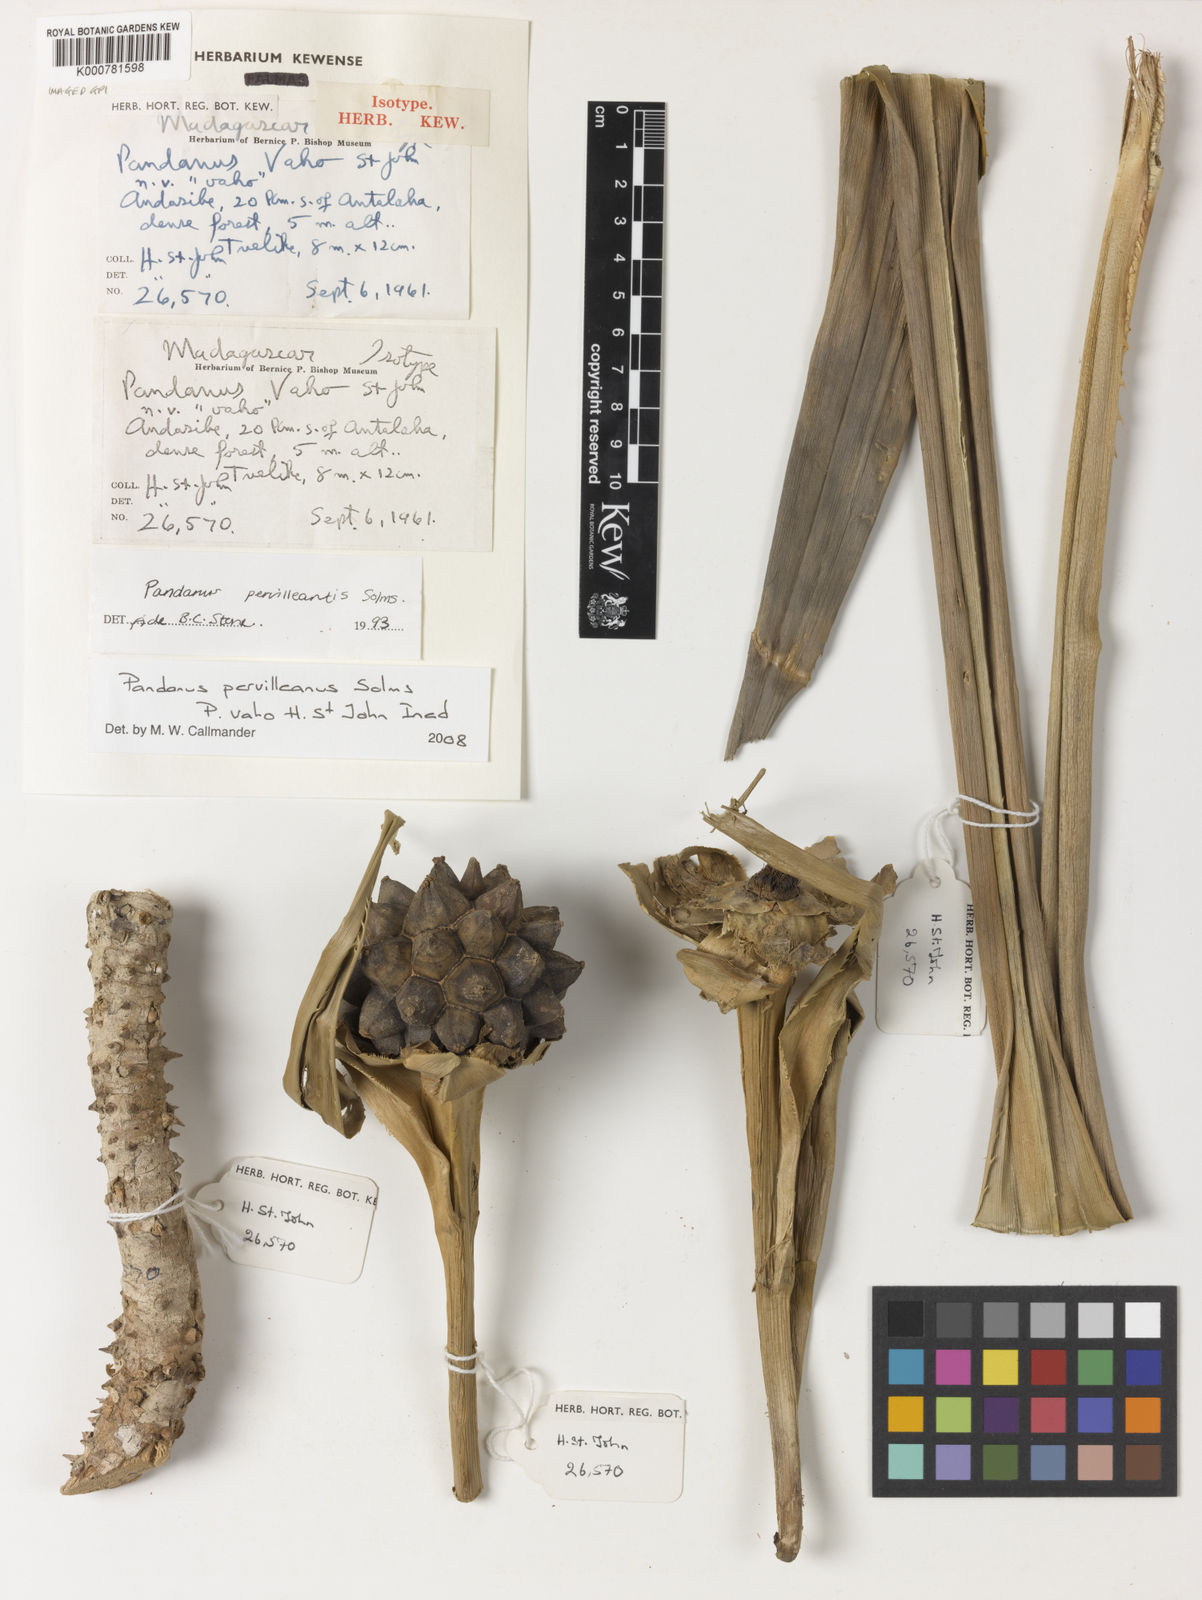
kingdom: Plantae
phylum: Tracheophyta
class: Liliopsida
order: Pandanales
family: Pandanaceae
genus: Pandanus
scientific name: Pandanus
